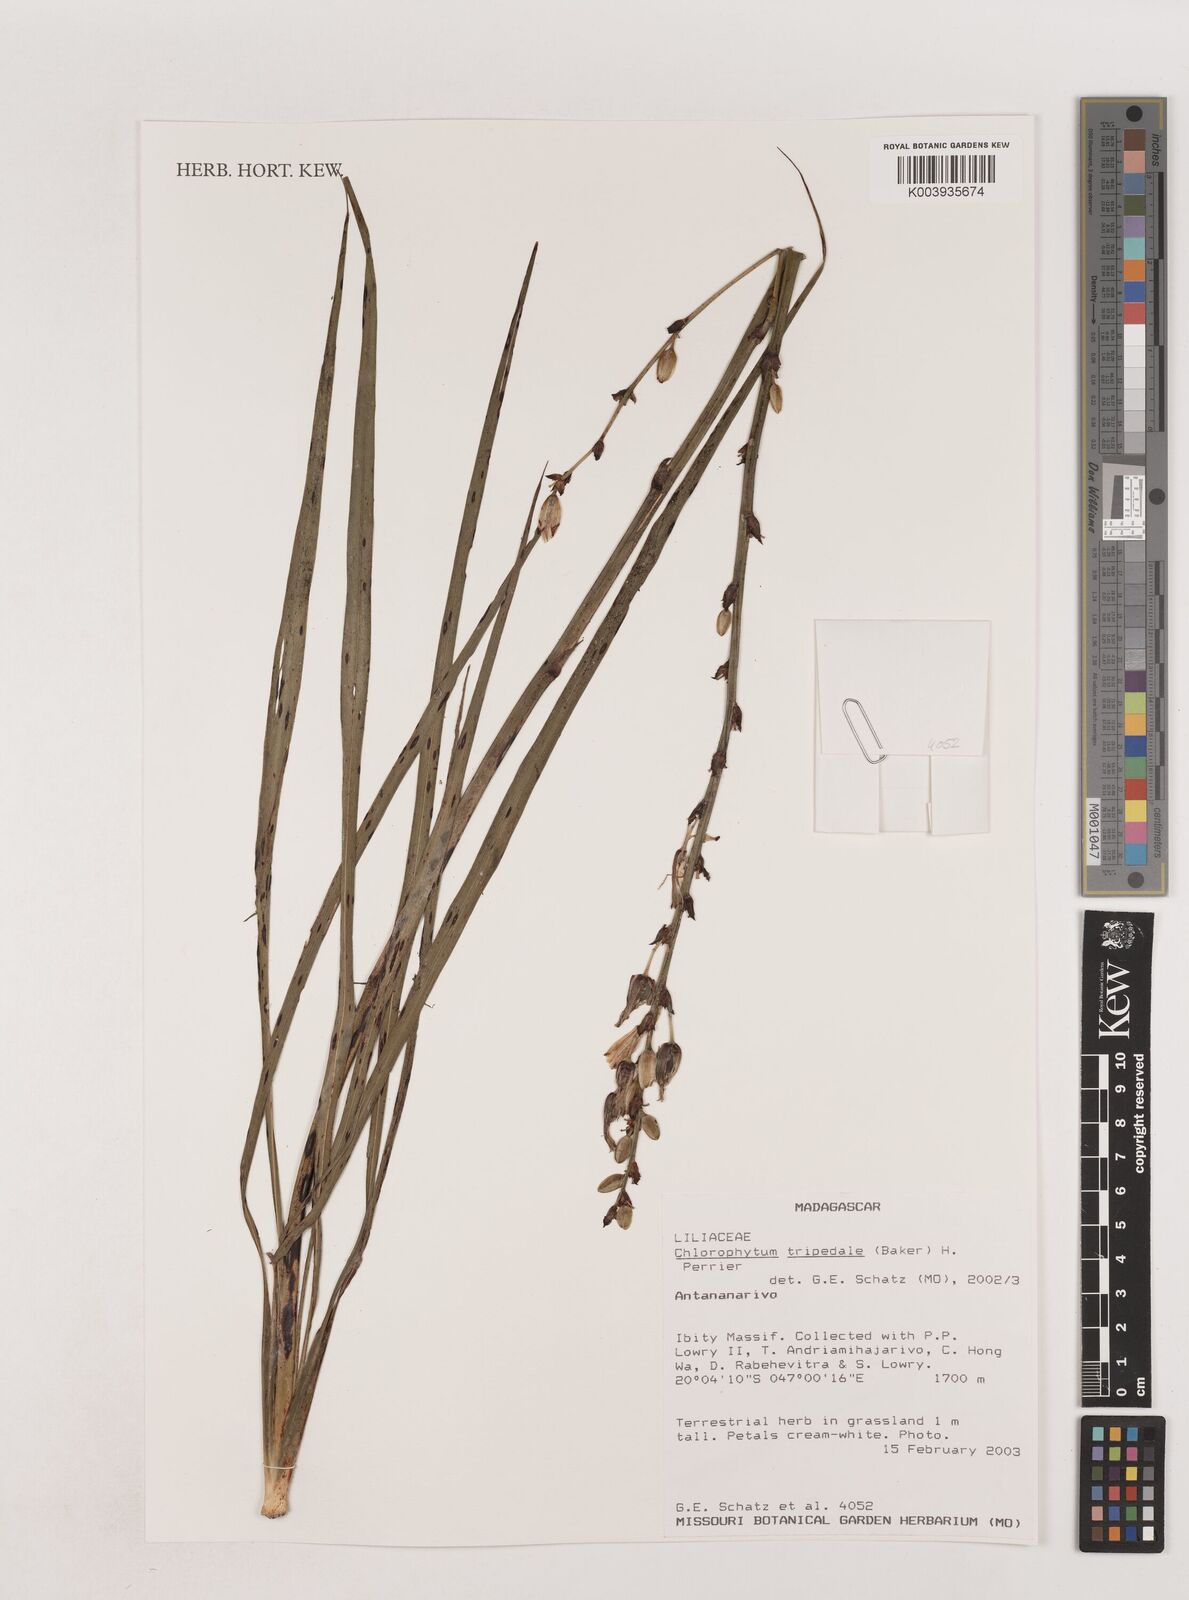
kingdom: Plantae
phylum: Tracheophyta
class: Liliopsida
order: Asparagales
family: Asparagaceae
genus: Chlorophytum
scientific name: Chlorophytum tripedale
